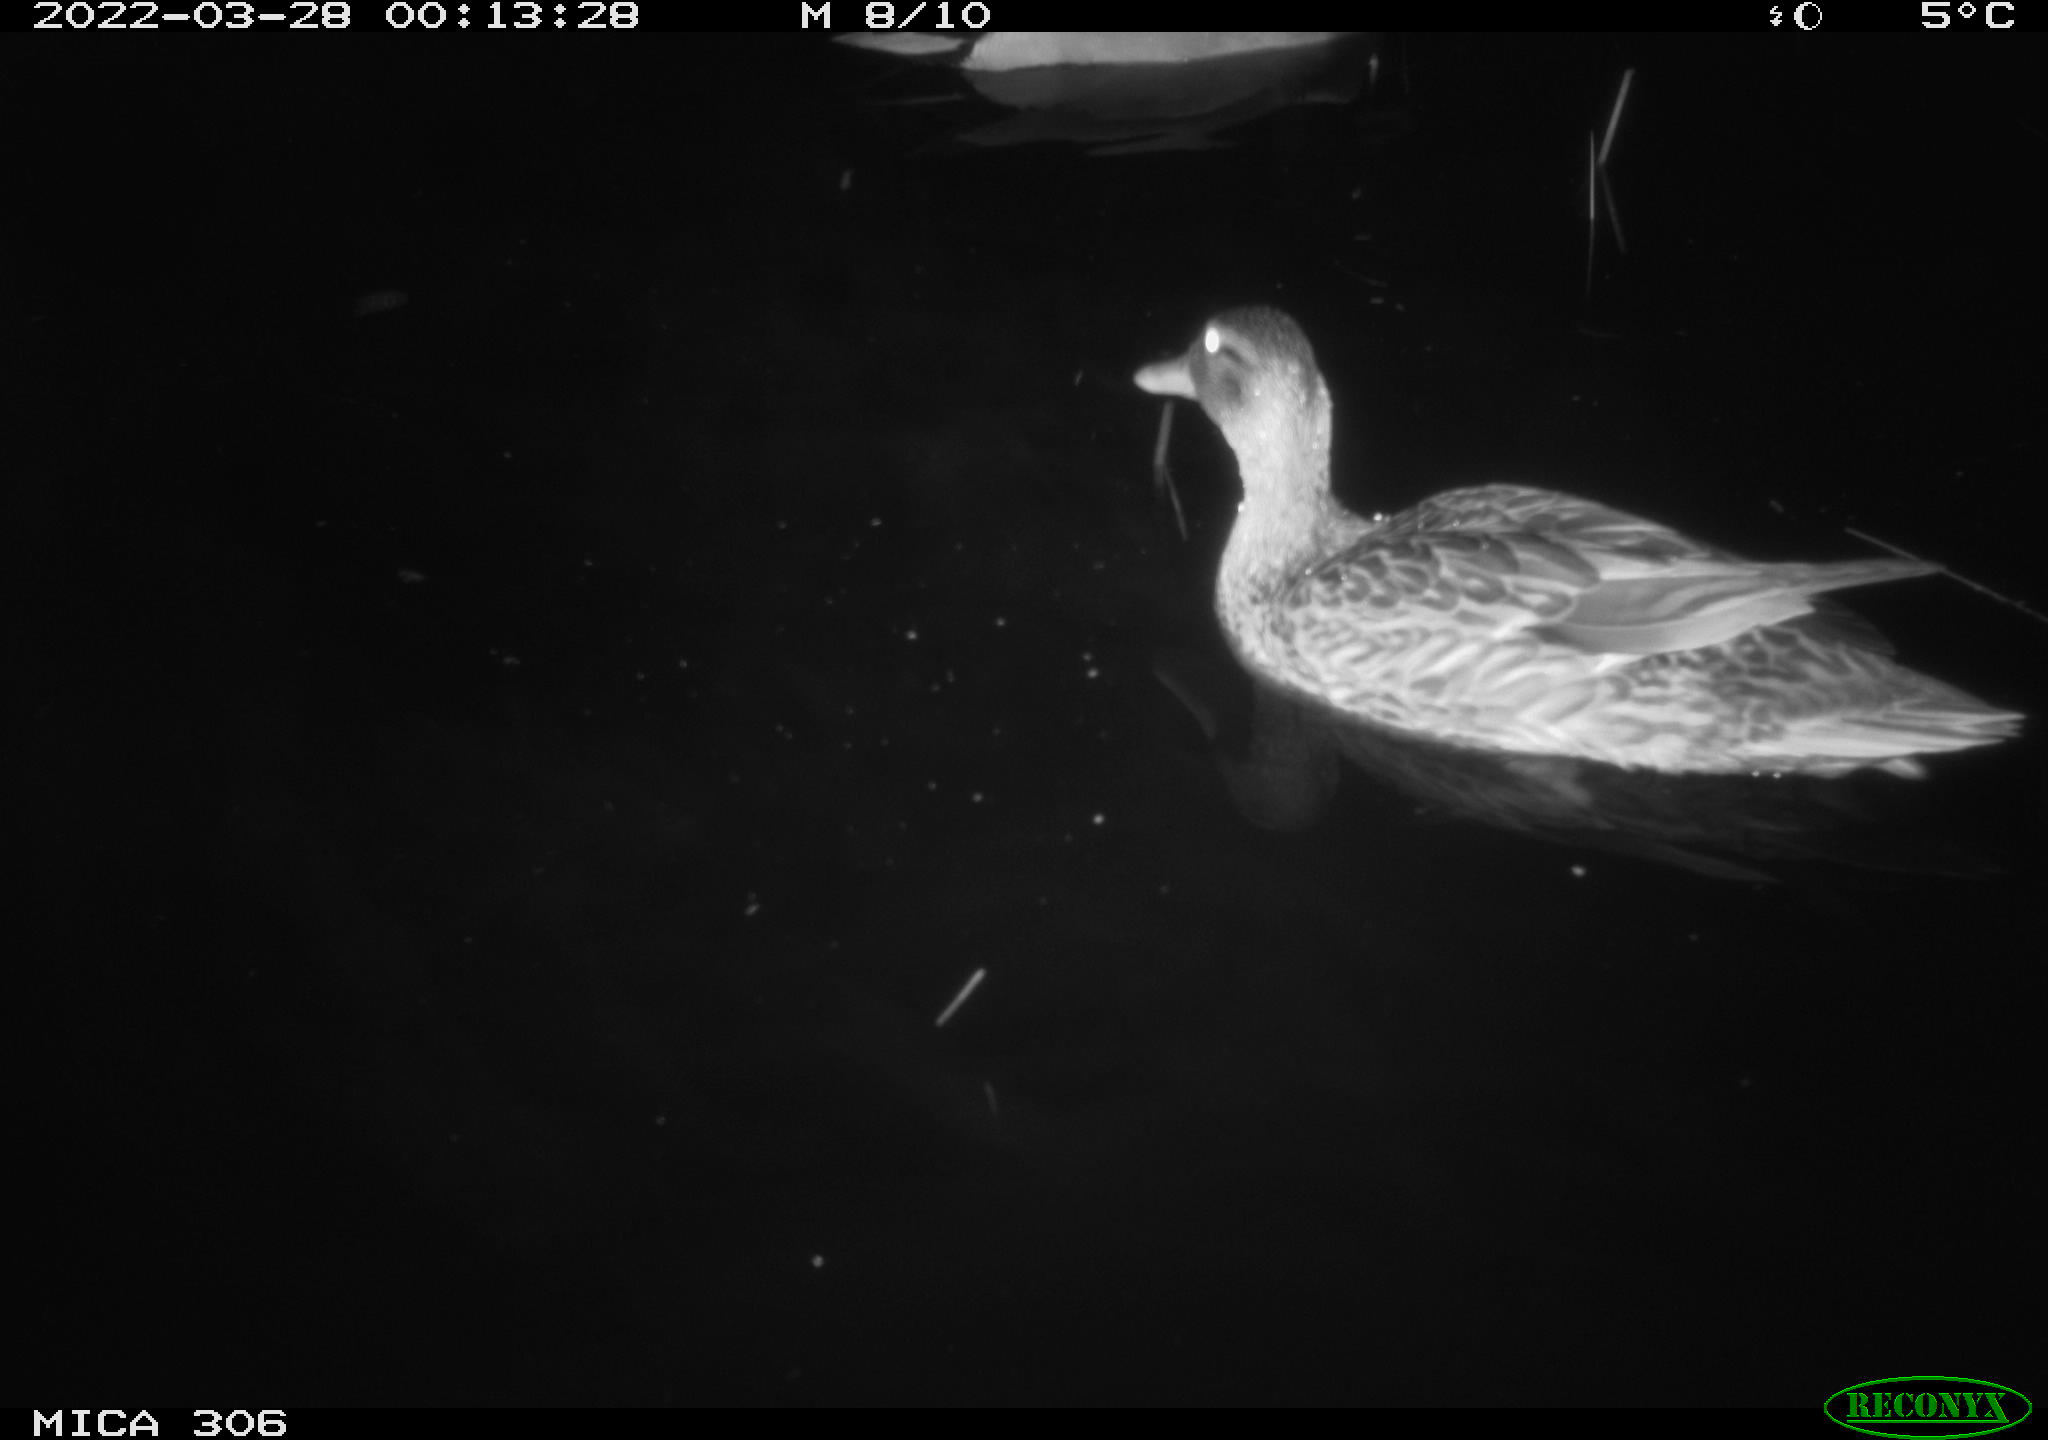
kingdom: Animalia
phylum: Chordata
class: Aves
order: Anseriformes
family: Anatidae
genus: Anas
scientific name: Anas
